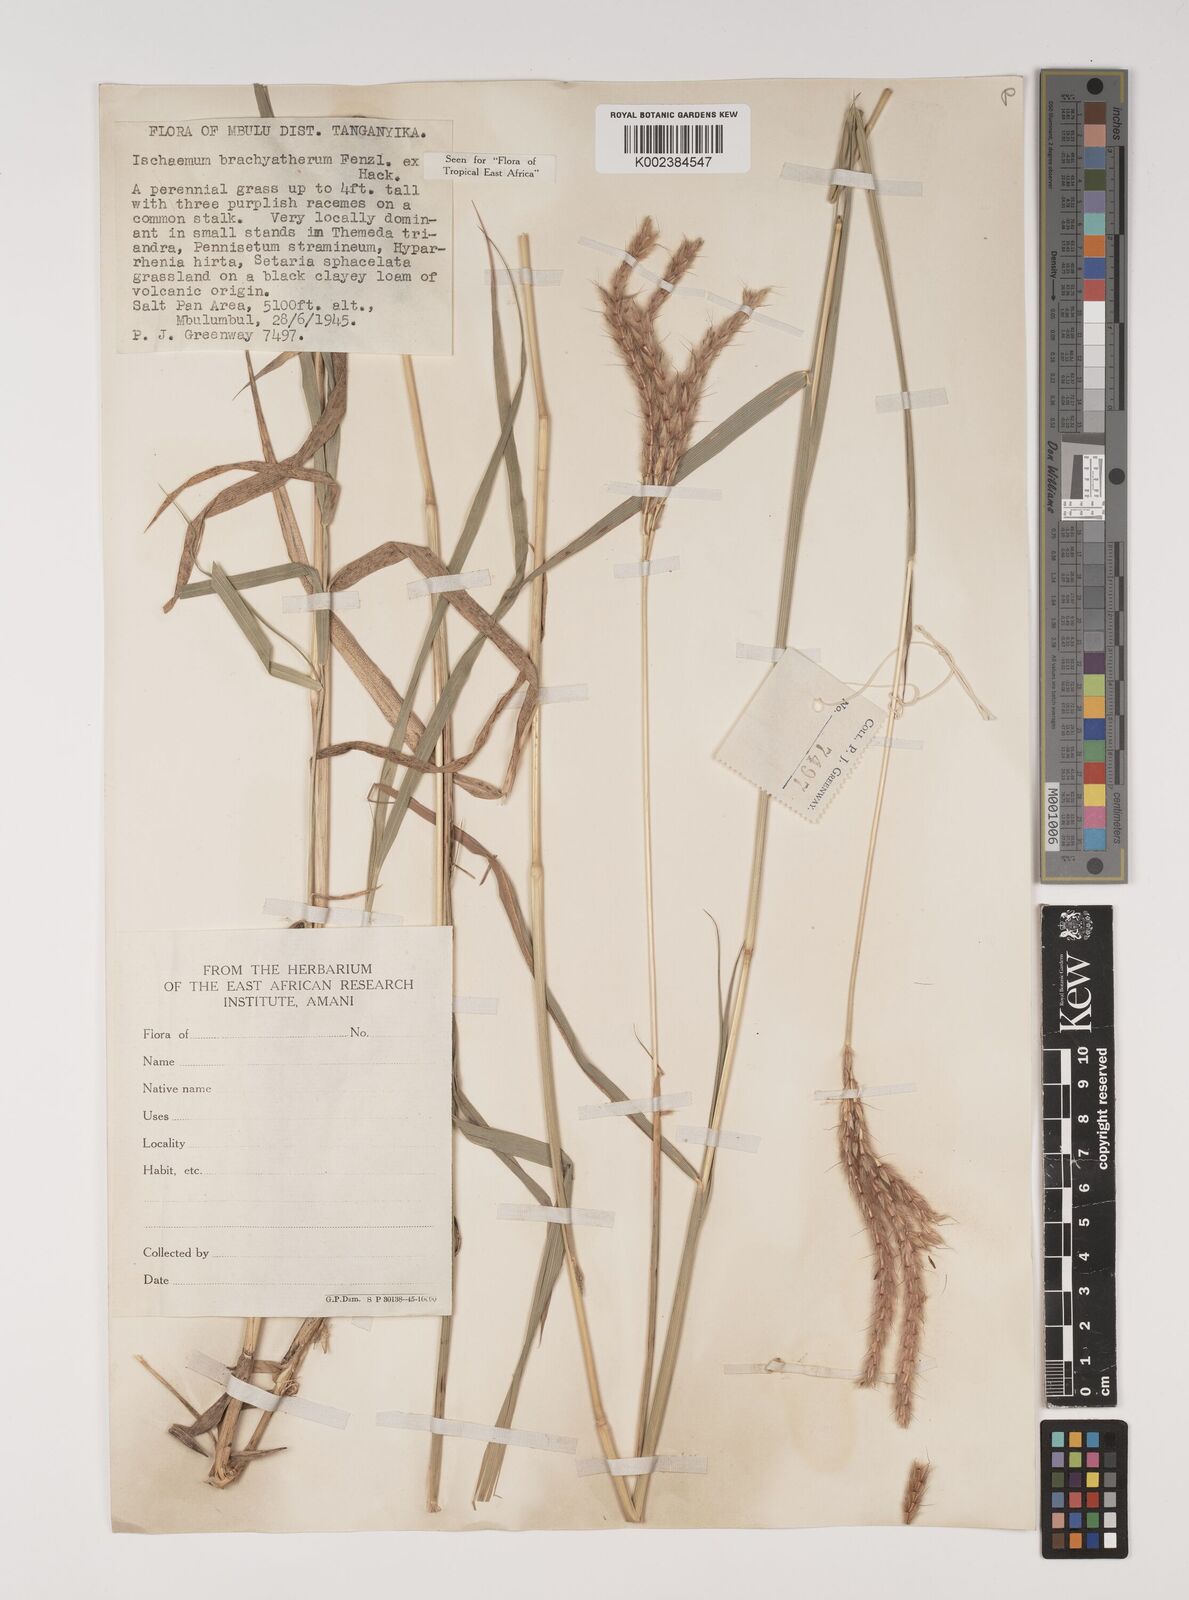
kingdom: Plantae
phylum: Tracheophyta
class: Liliopsida
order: Poales
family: Poaceae
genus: Ischaemum
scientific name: Ischaemum afrum
